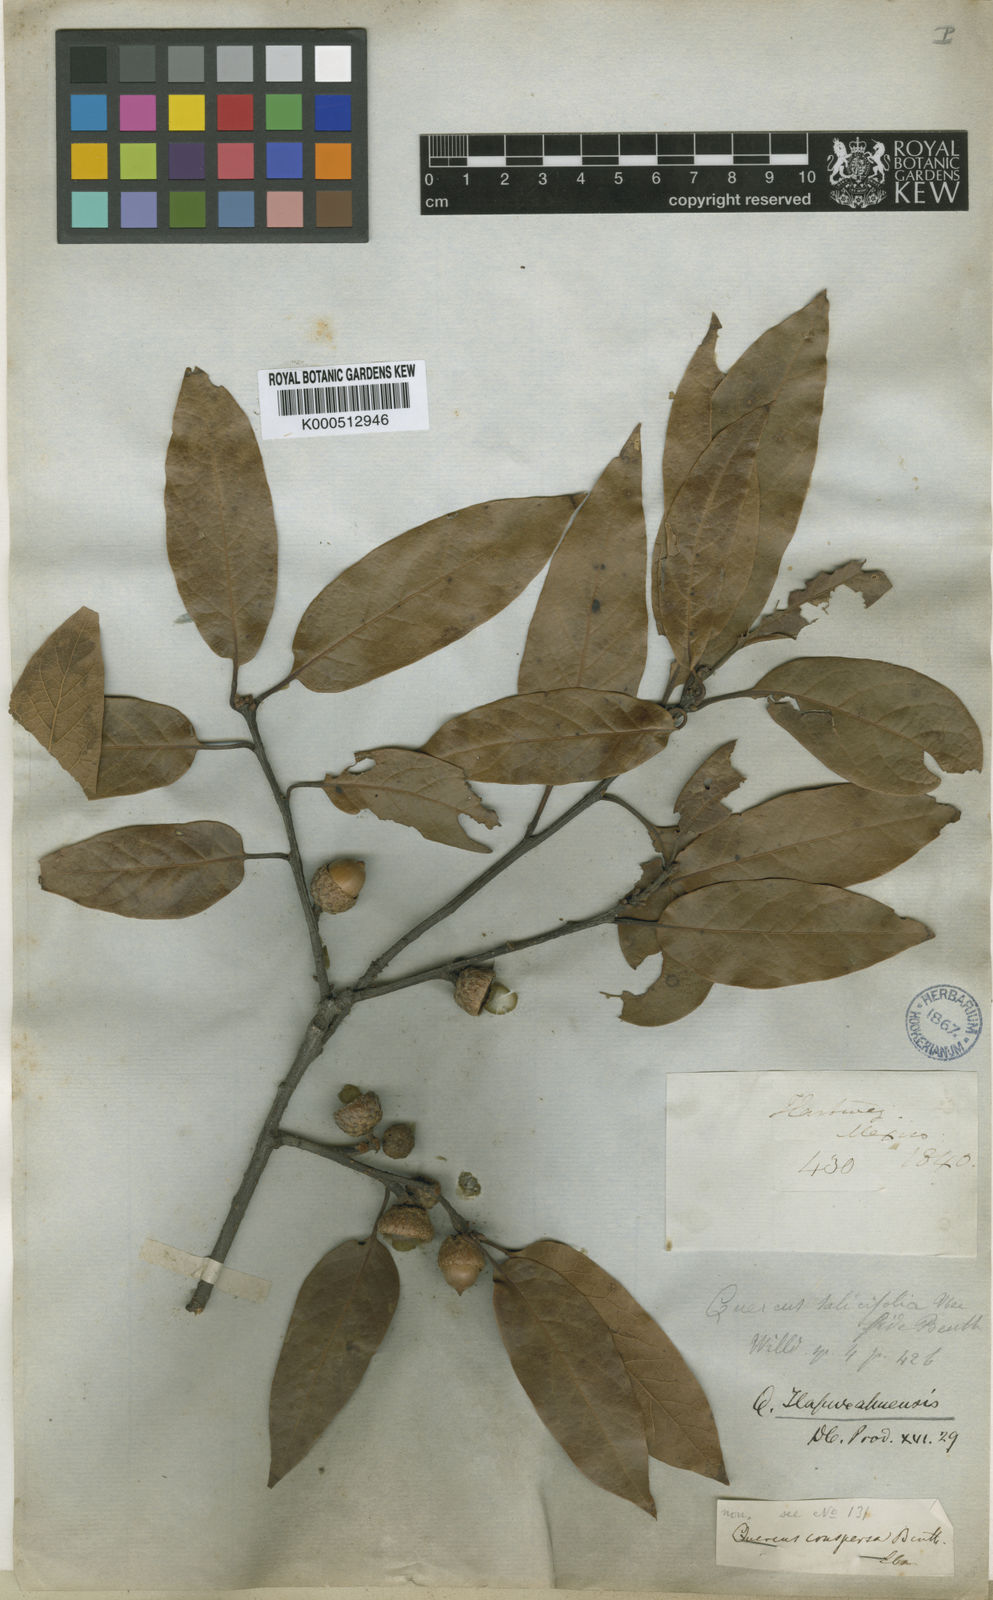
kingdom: Plantae
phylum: Tracheophyta
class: Magnoliopsida
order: Fagales
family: Fagaceae
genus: Quercus
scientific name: Quercus laurina
